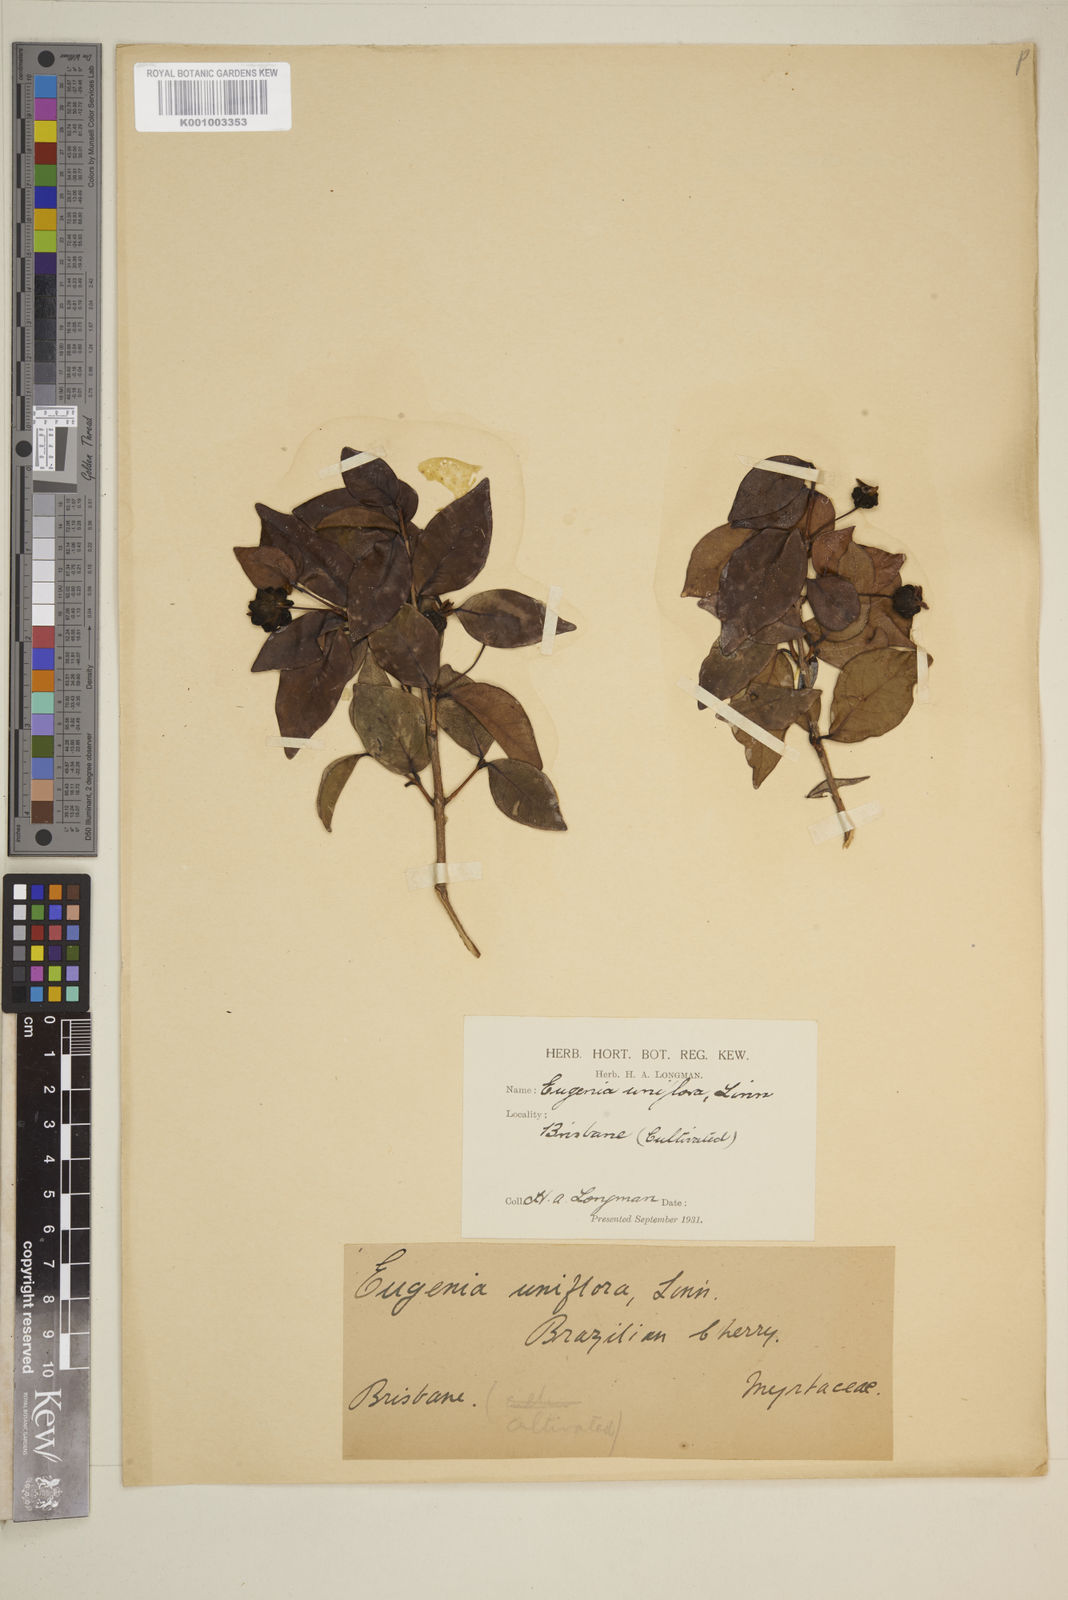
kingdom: Plantae
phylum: Tracheophyta
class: Magnoliopsida
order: Myrtales
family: Myrtaceae
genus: Eugenia
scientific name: Eugenia uniflora
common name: Surinam cherry
